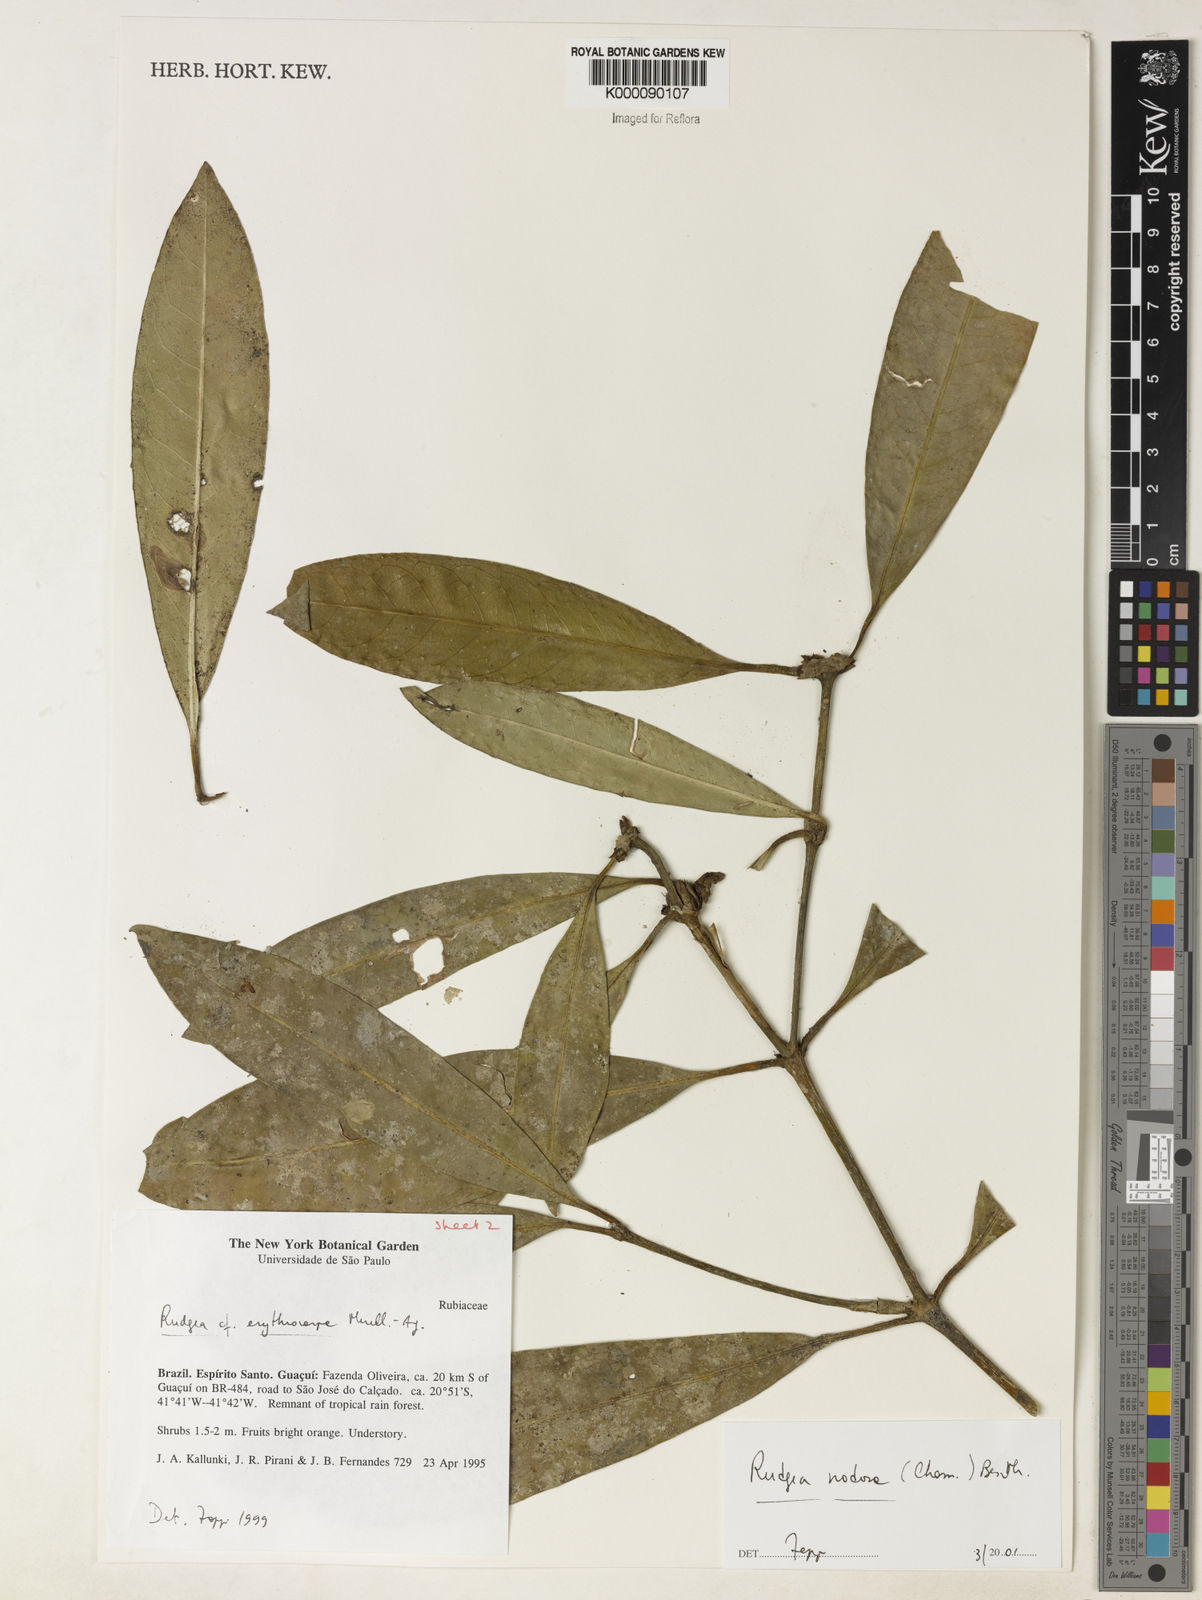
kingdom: Plantae
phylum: Tracheophyta
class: Magnoliopsida
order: Gentianales
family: Rubiaceae
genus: Rudgea
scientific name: Rudgea nodosa
